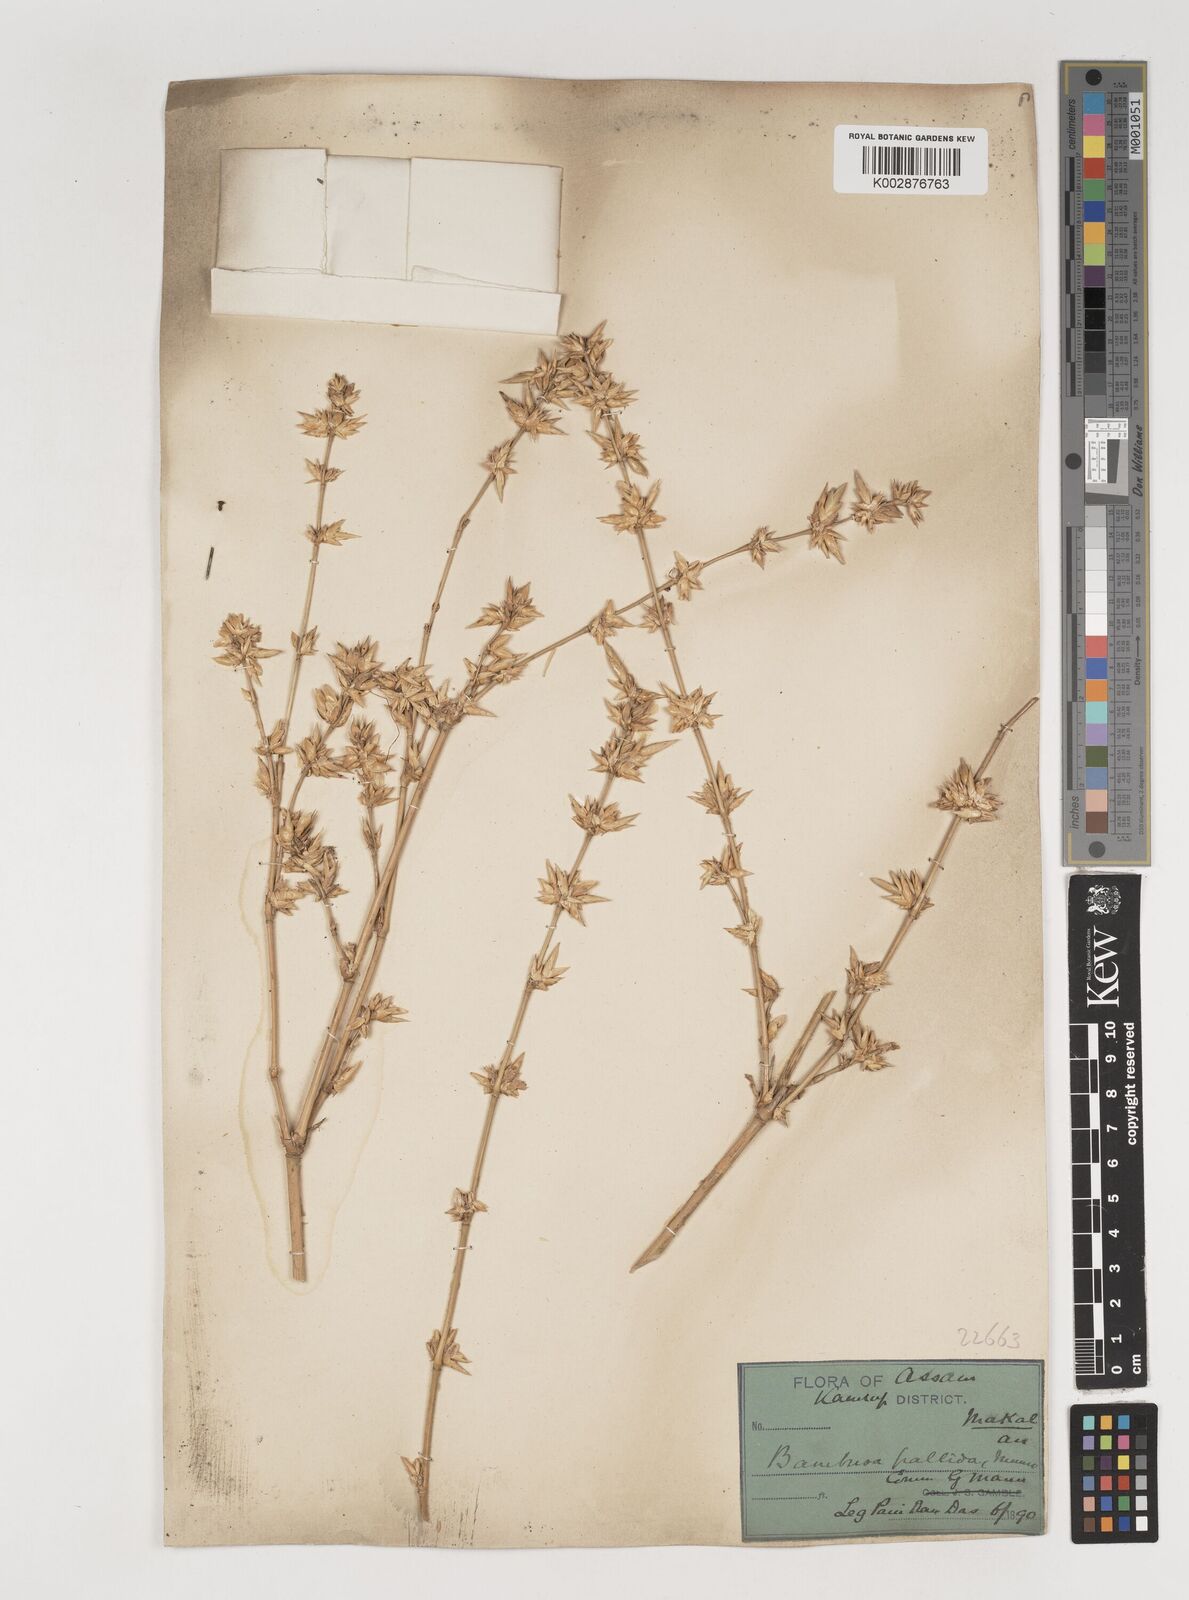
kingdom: Plantae
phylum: Tracheophyta
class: Liliopsida
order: Poales
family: Poaceae
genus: Bambusa
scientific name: Bambusa pallida
